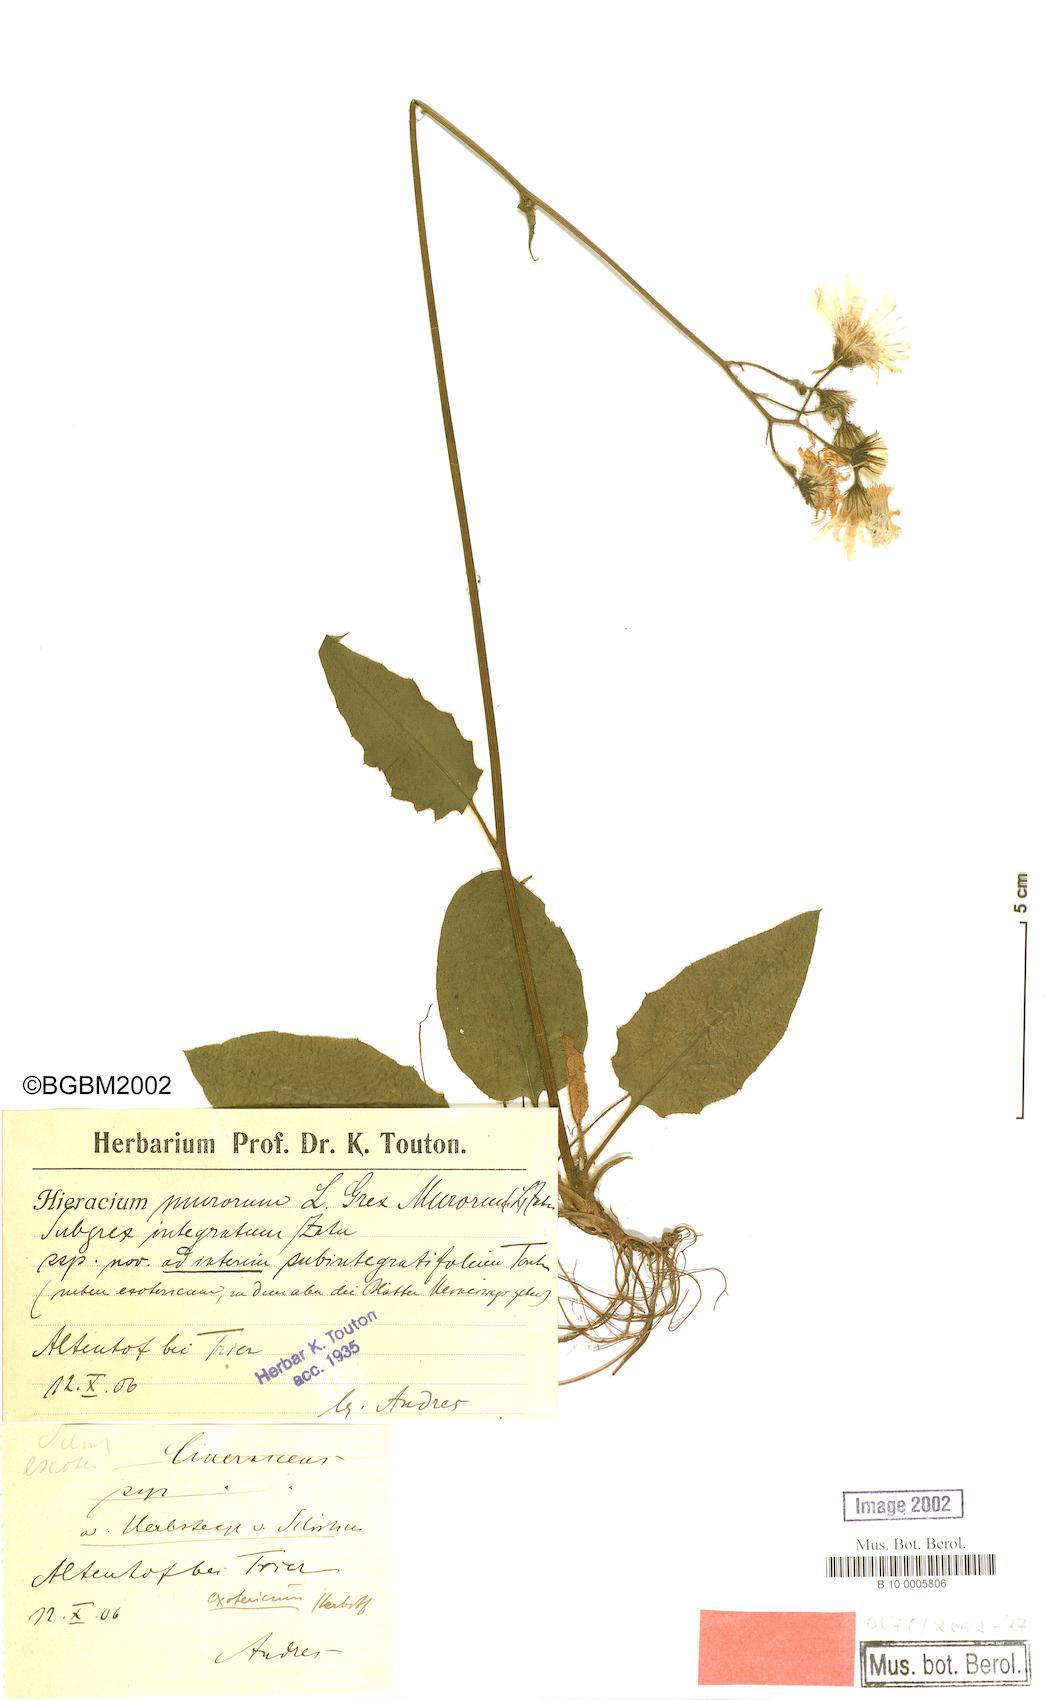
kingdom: Plantae
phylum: Tracheophyta
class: Magnoliopsida
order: Asterales
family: Asteraceae
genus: Hieracium
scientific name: Hieracium murorum
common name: Wall hawkweed
